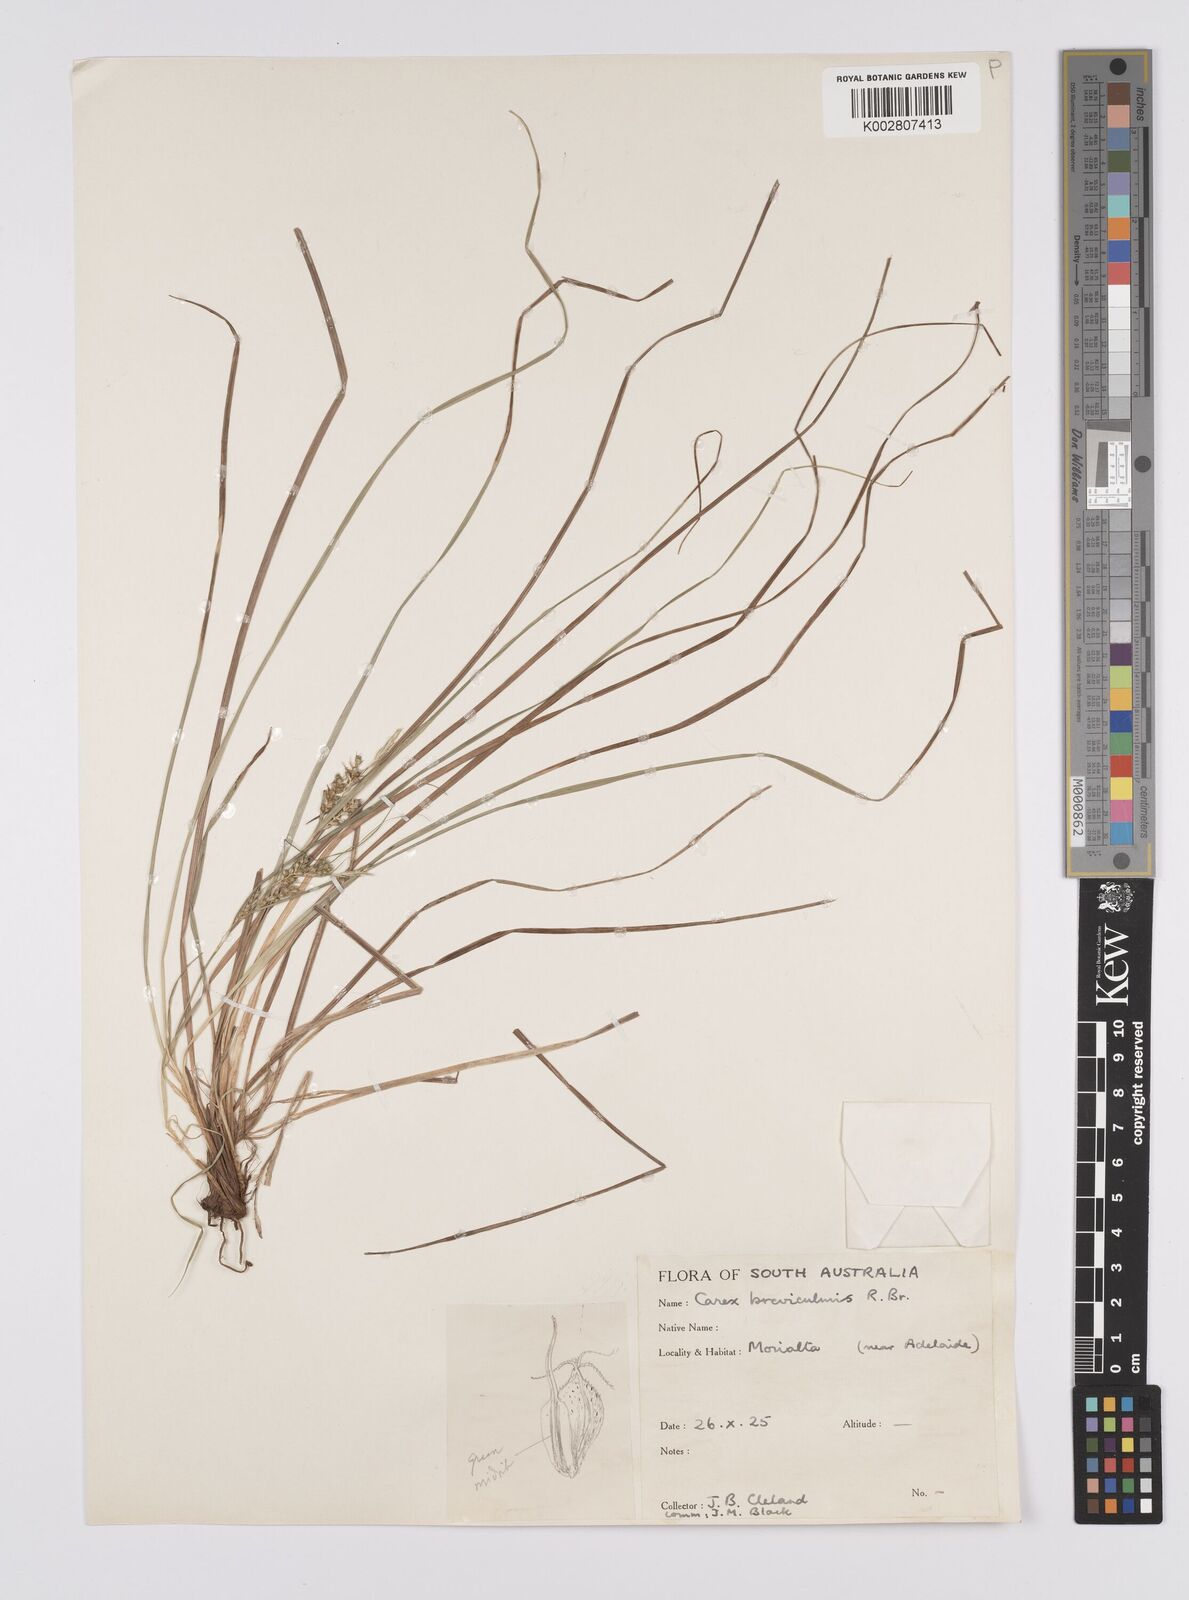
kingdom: Plantae
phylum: Tracheophyta
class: Liliopsida
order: Poales
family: Cyperaceae
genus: Carex
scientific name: Carex breviculmis
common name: Asian shortstem sedge
